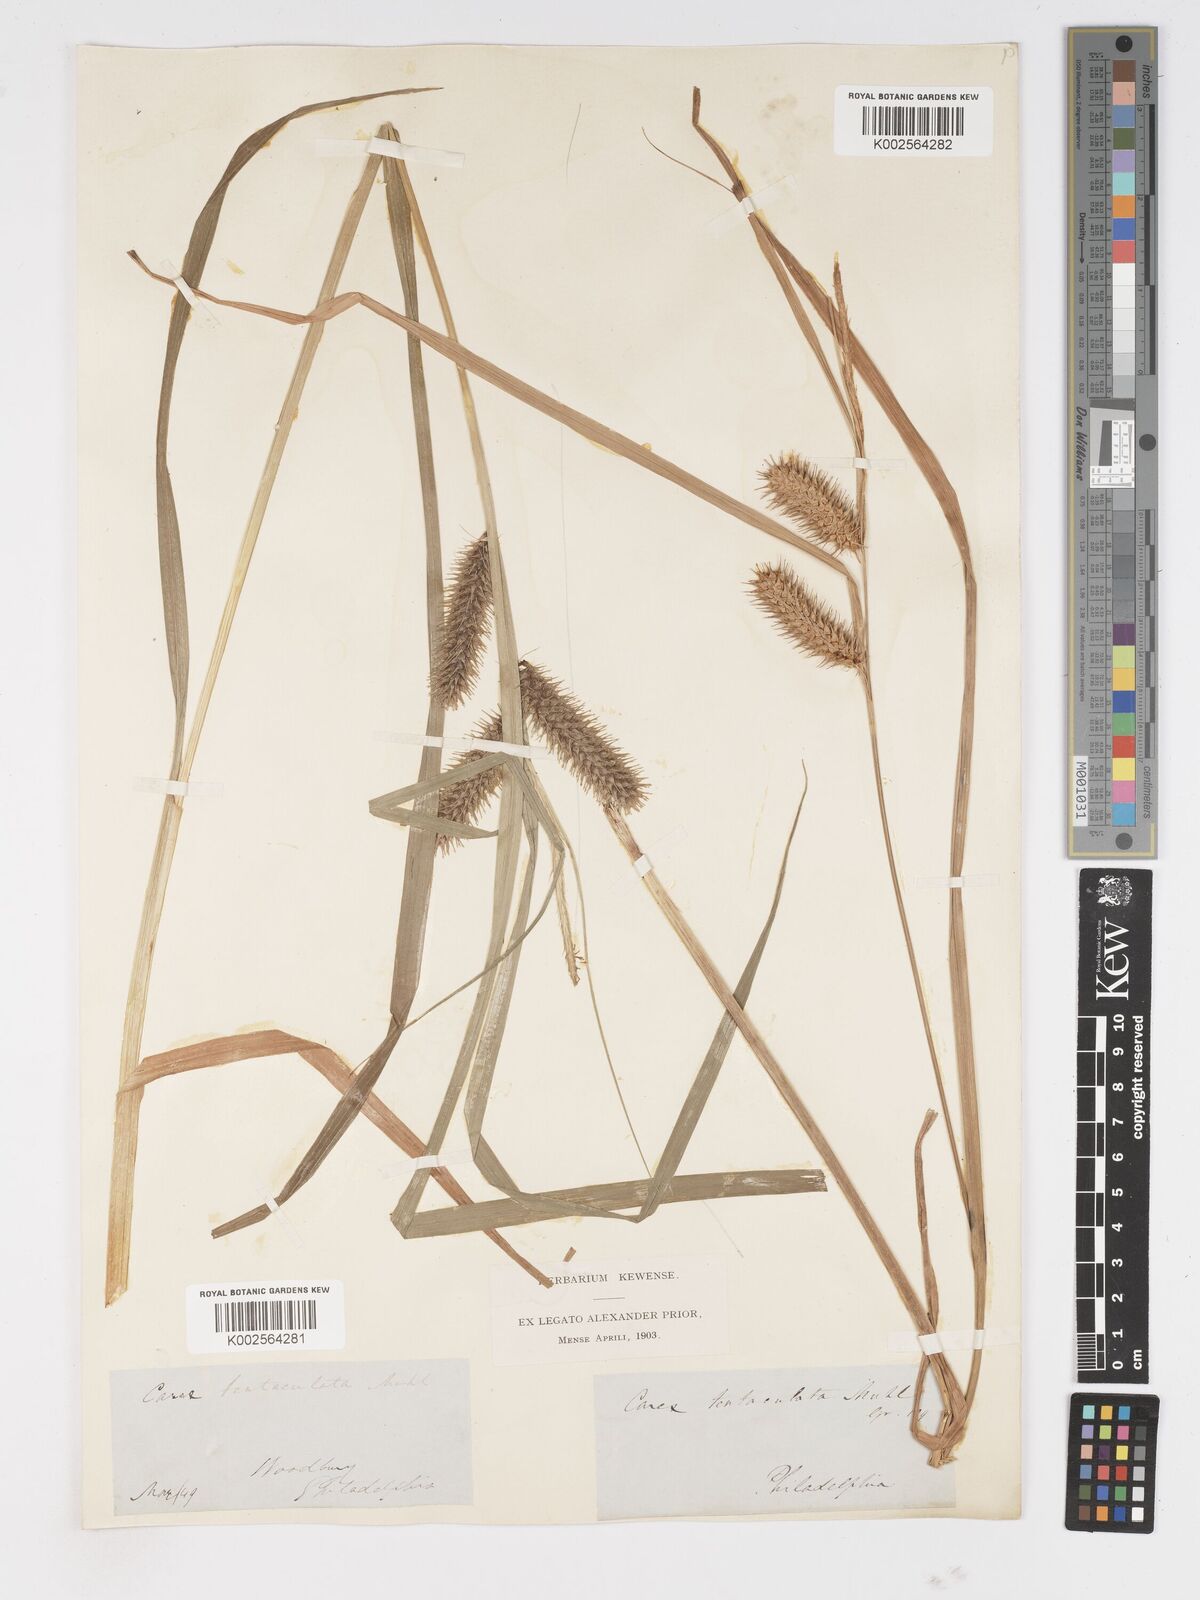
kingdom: Plantae
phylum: Tracheophyta
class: Liliopsida
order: Poales
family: Cyperaceae
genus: Carex
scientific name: Carex lurida
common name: Sallow sedge
